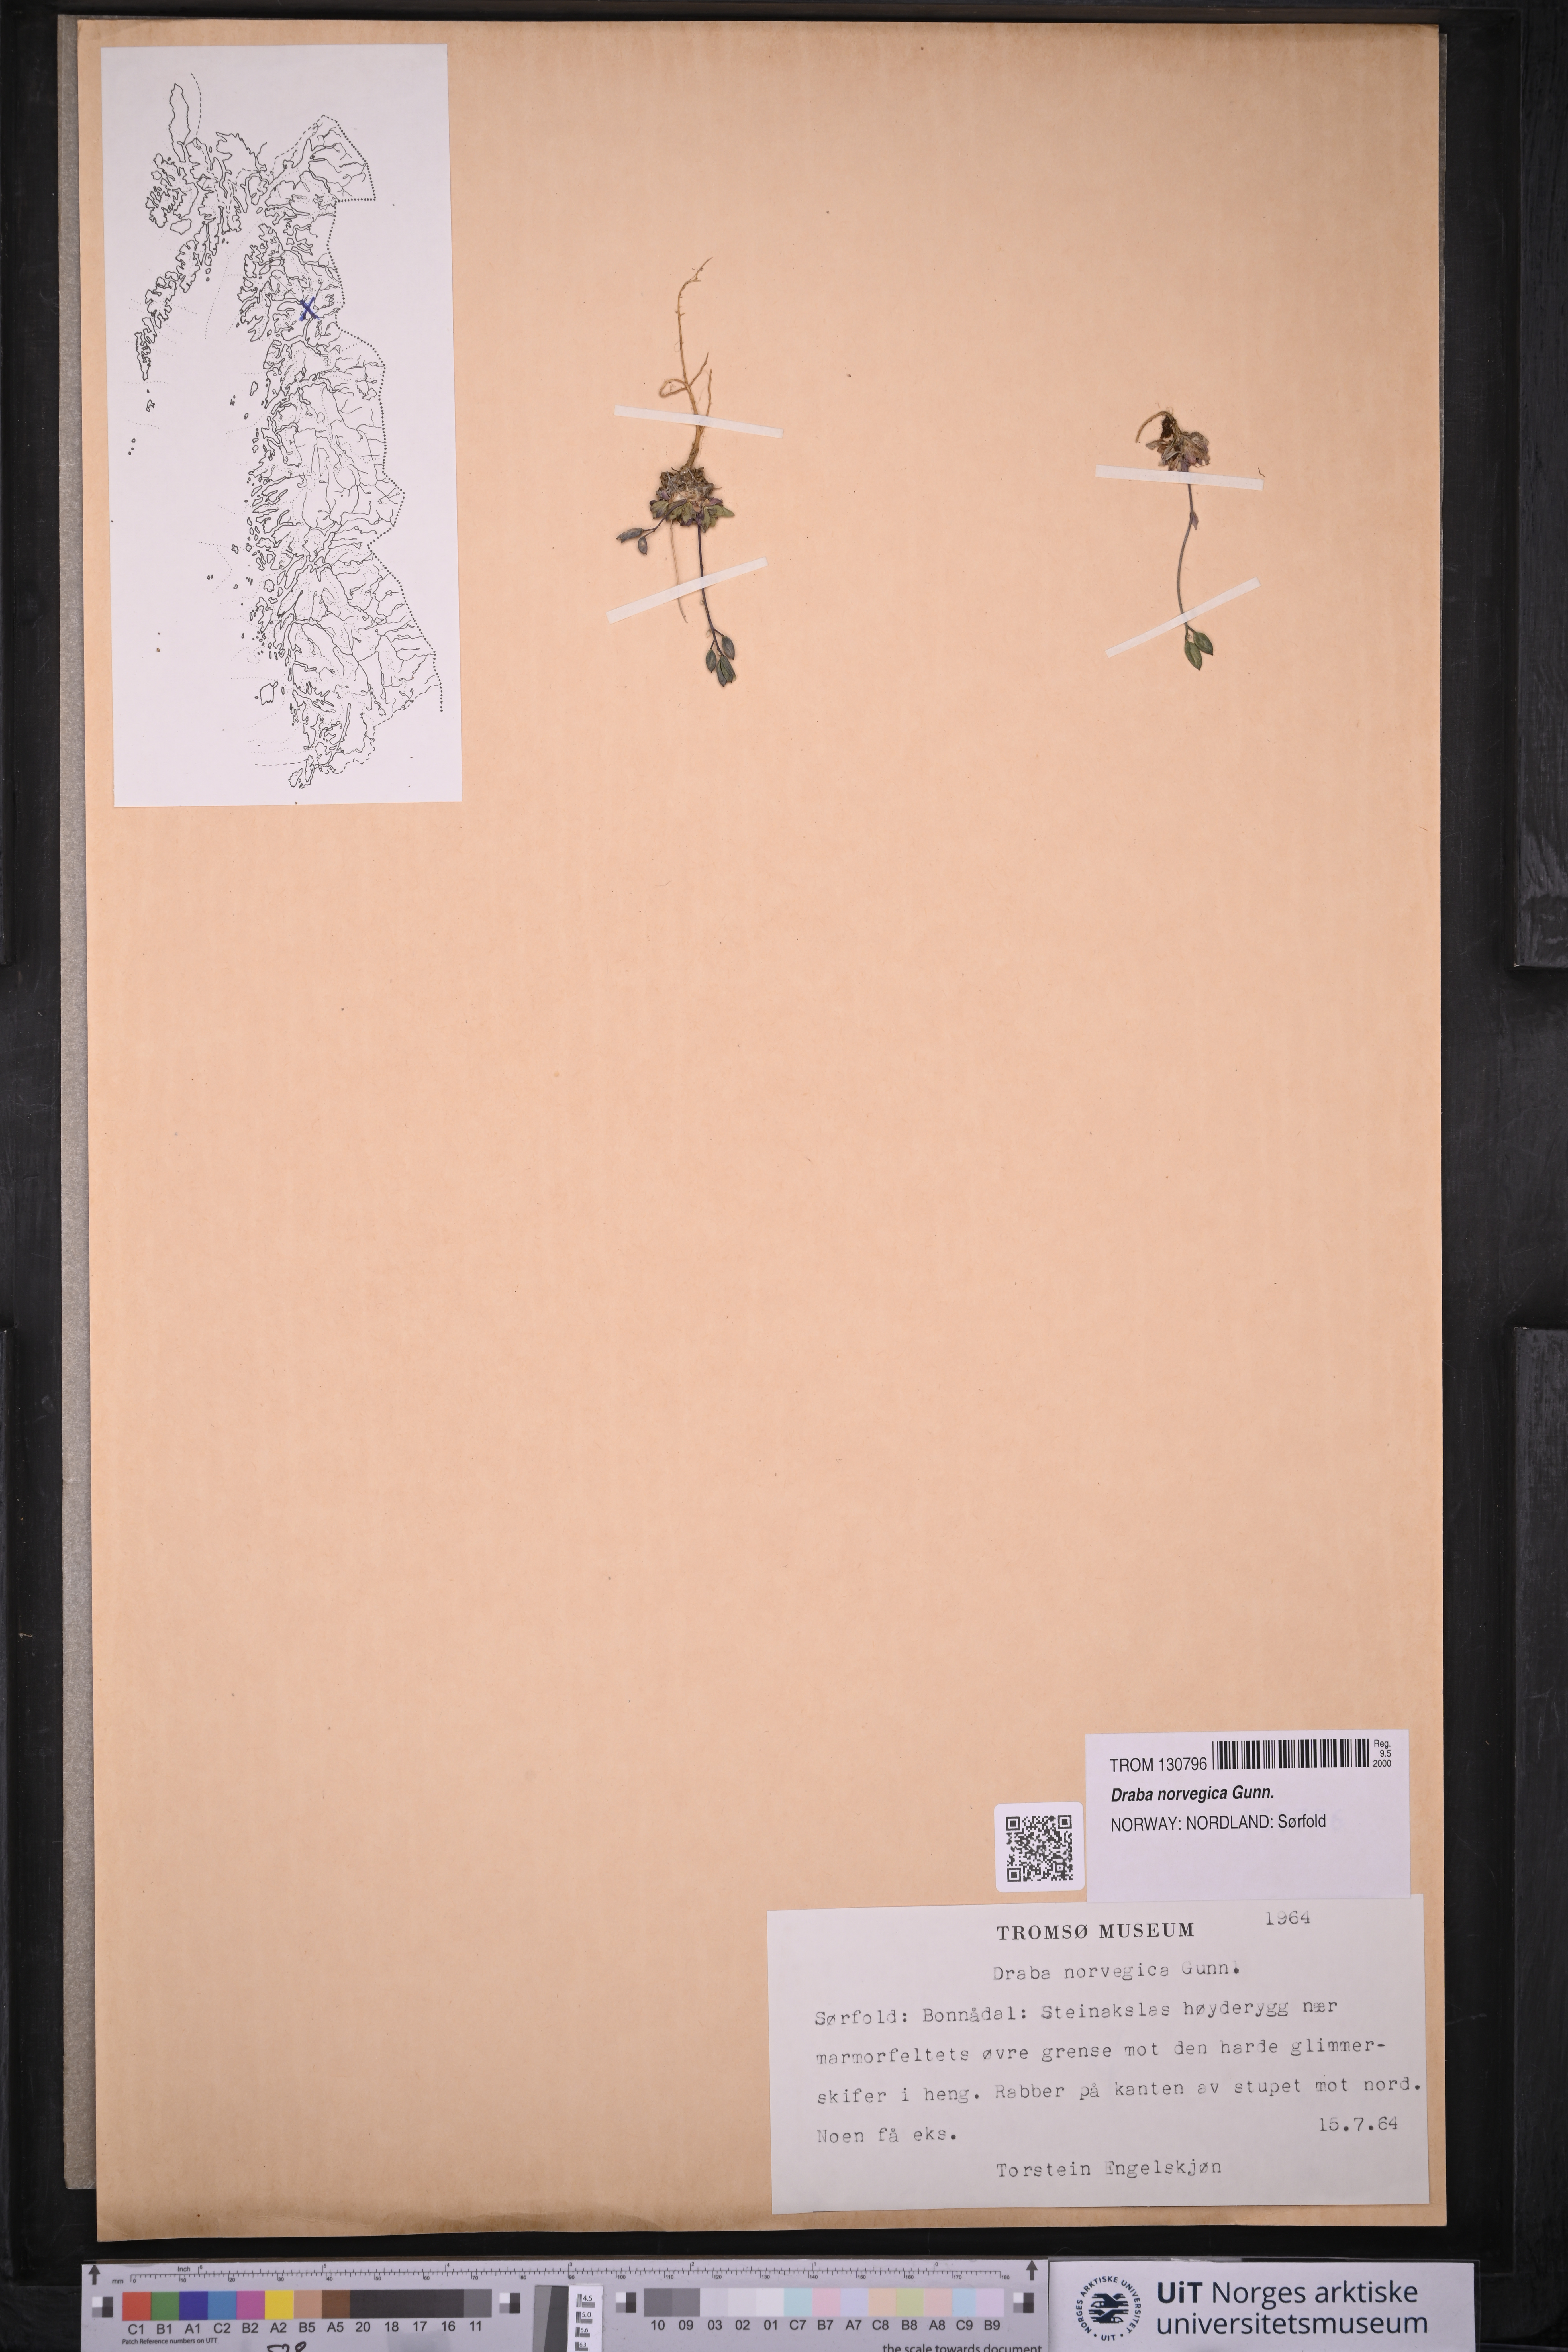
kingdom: Plantae
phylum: Tracheophyta
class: Magnoliopsida
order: Brassicales
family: Brassicaceae
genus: Draba
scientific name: Draba norvegica
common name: Rock whitlowgrass
